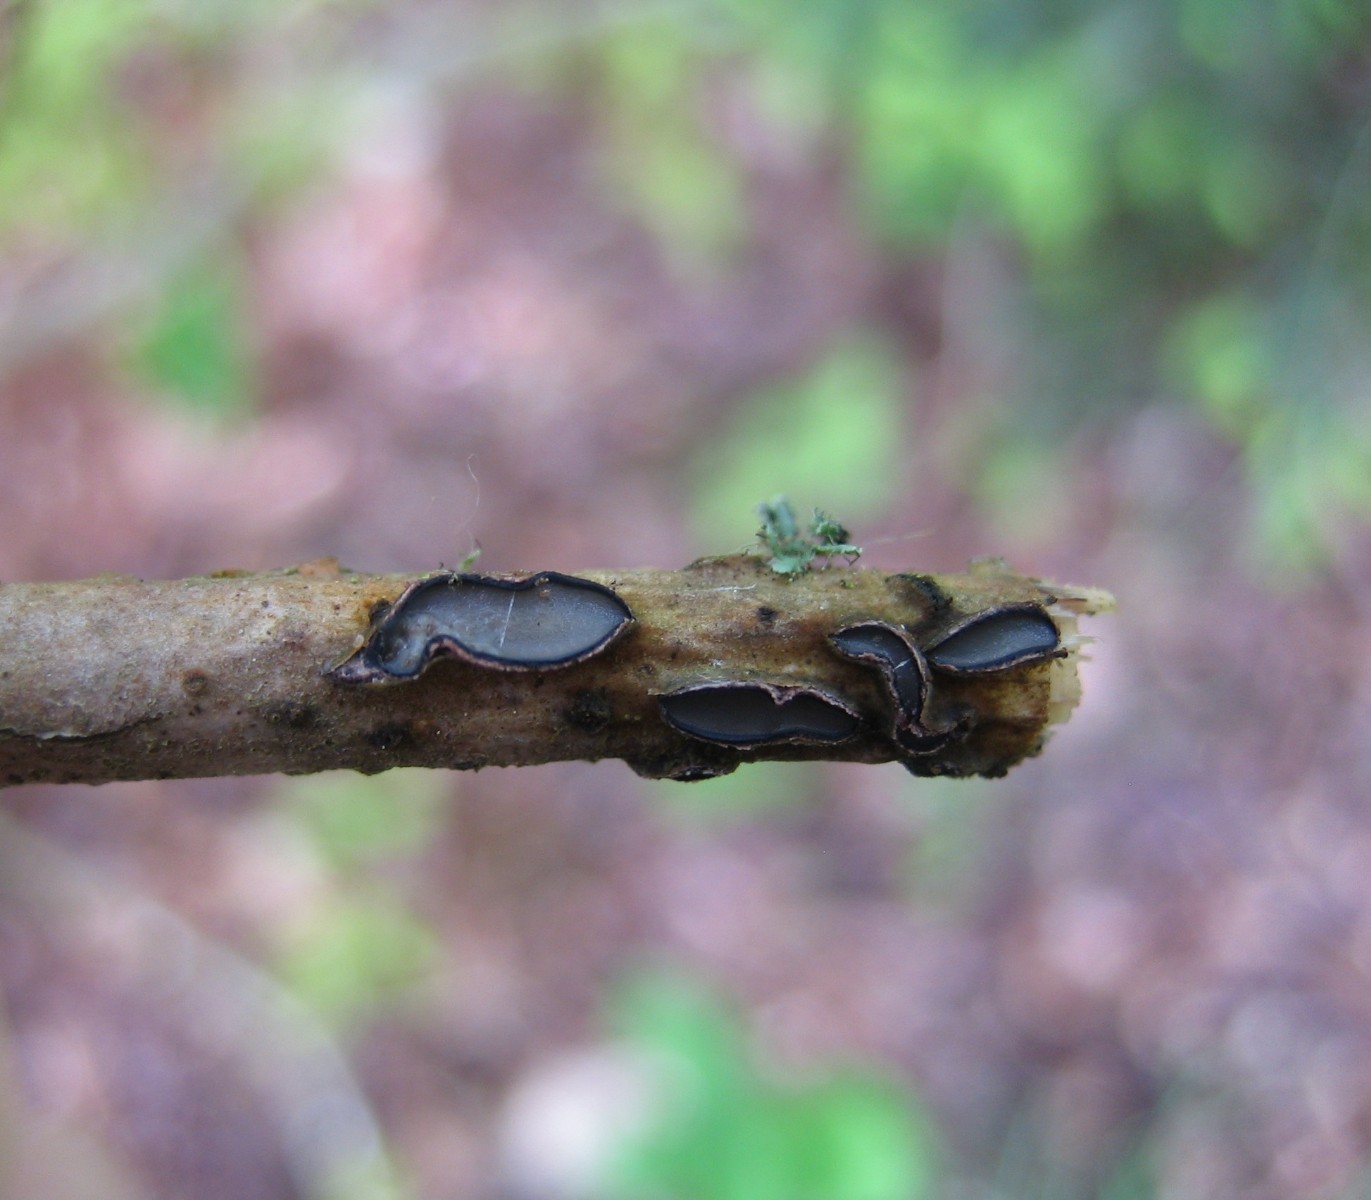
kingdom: Fungi
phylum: Ascomycota
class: Leotiomycetes
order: Rhytismatales
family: Rhytismataceae
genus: Colpoma
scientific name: Colpoma quercinum
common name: ege-sprækkeskive
